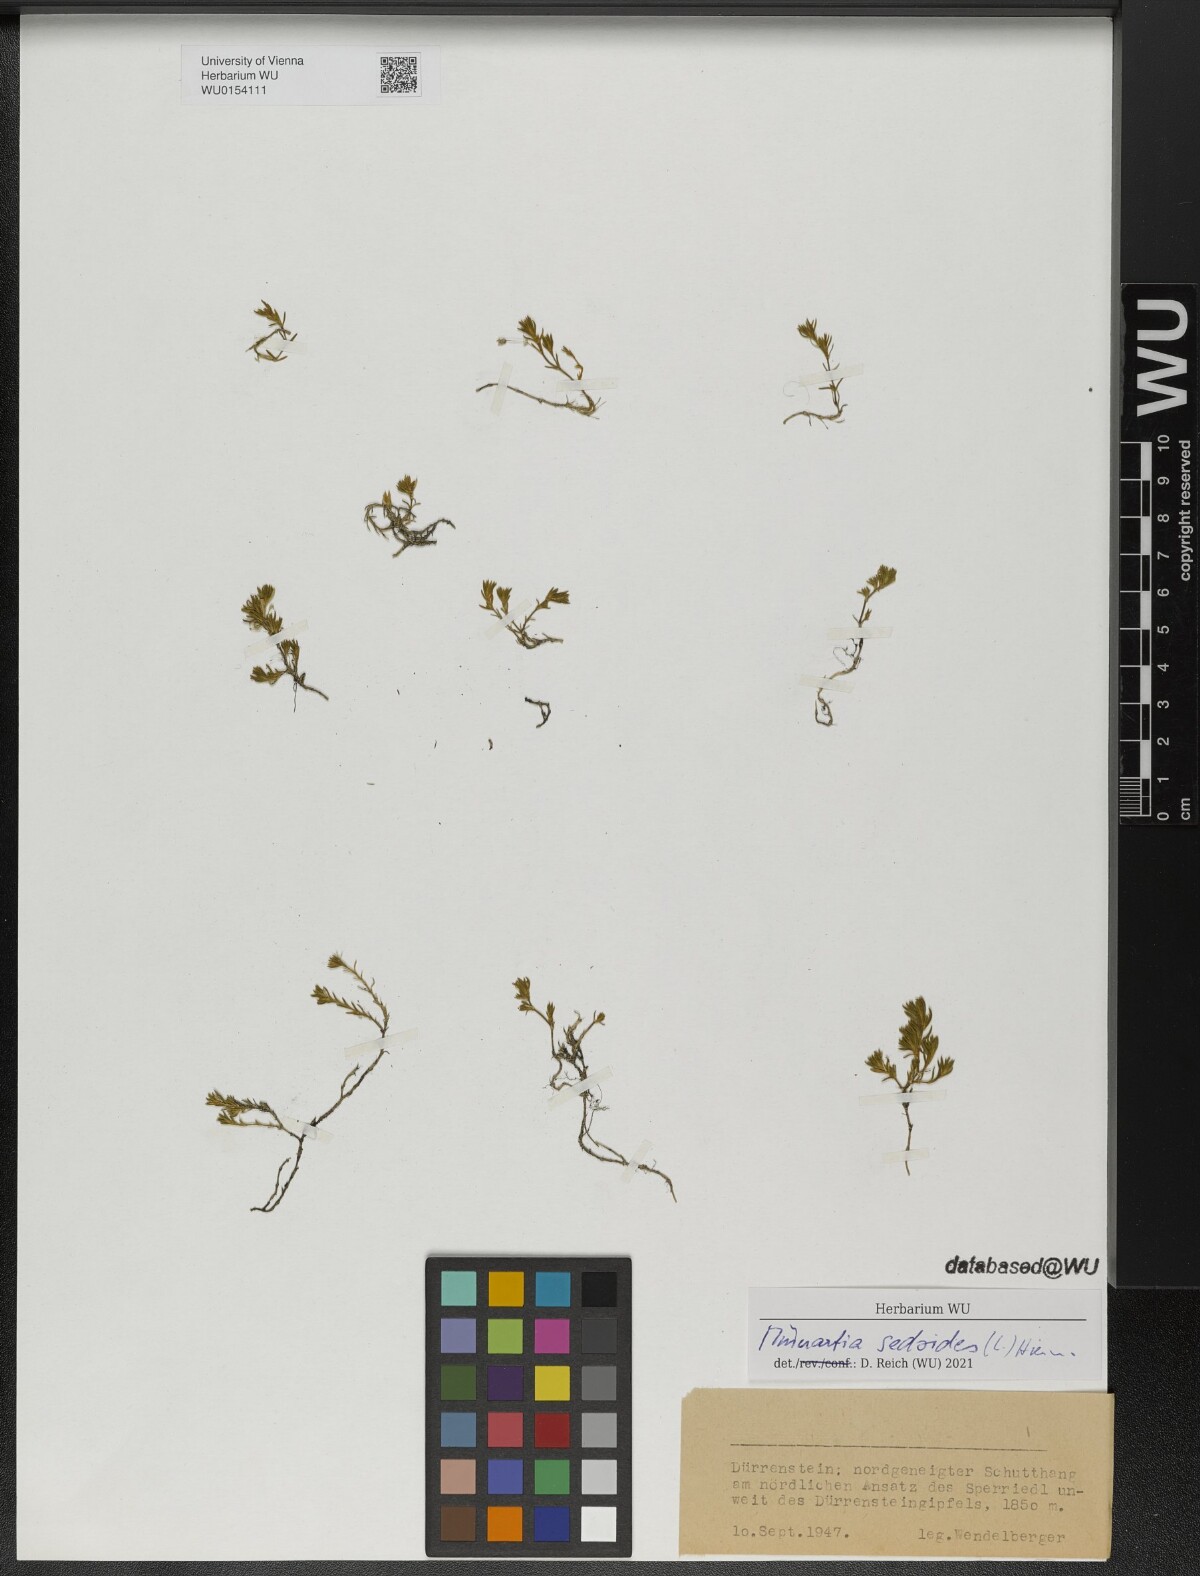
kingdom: Plantae
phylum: Tracheophyta
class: Magnoliopsida
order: Caryophyllales
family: Caryophyllaceae
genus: Cherleria
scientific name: Cherleria sedoides
